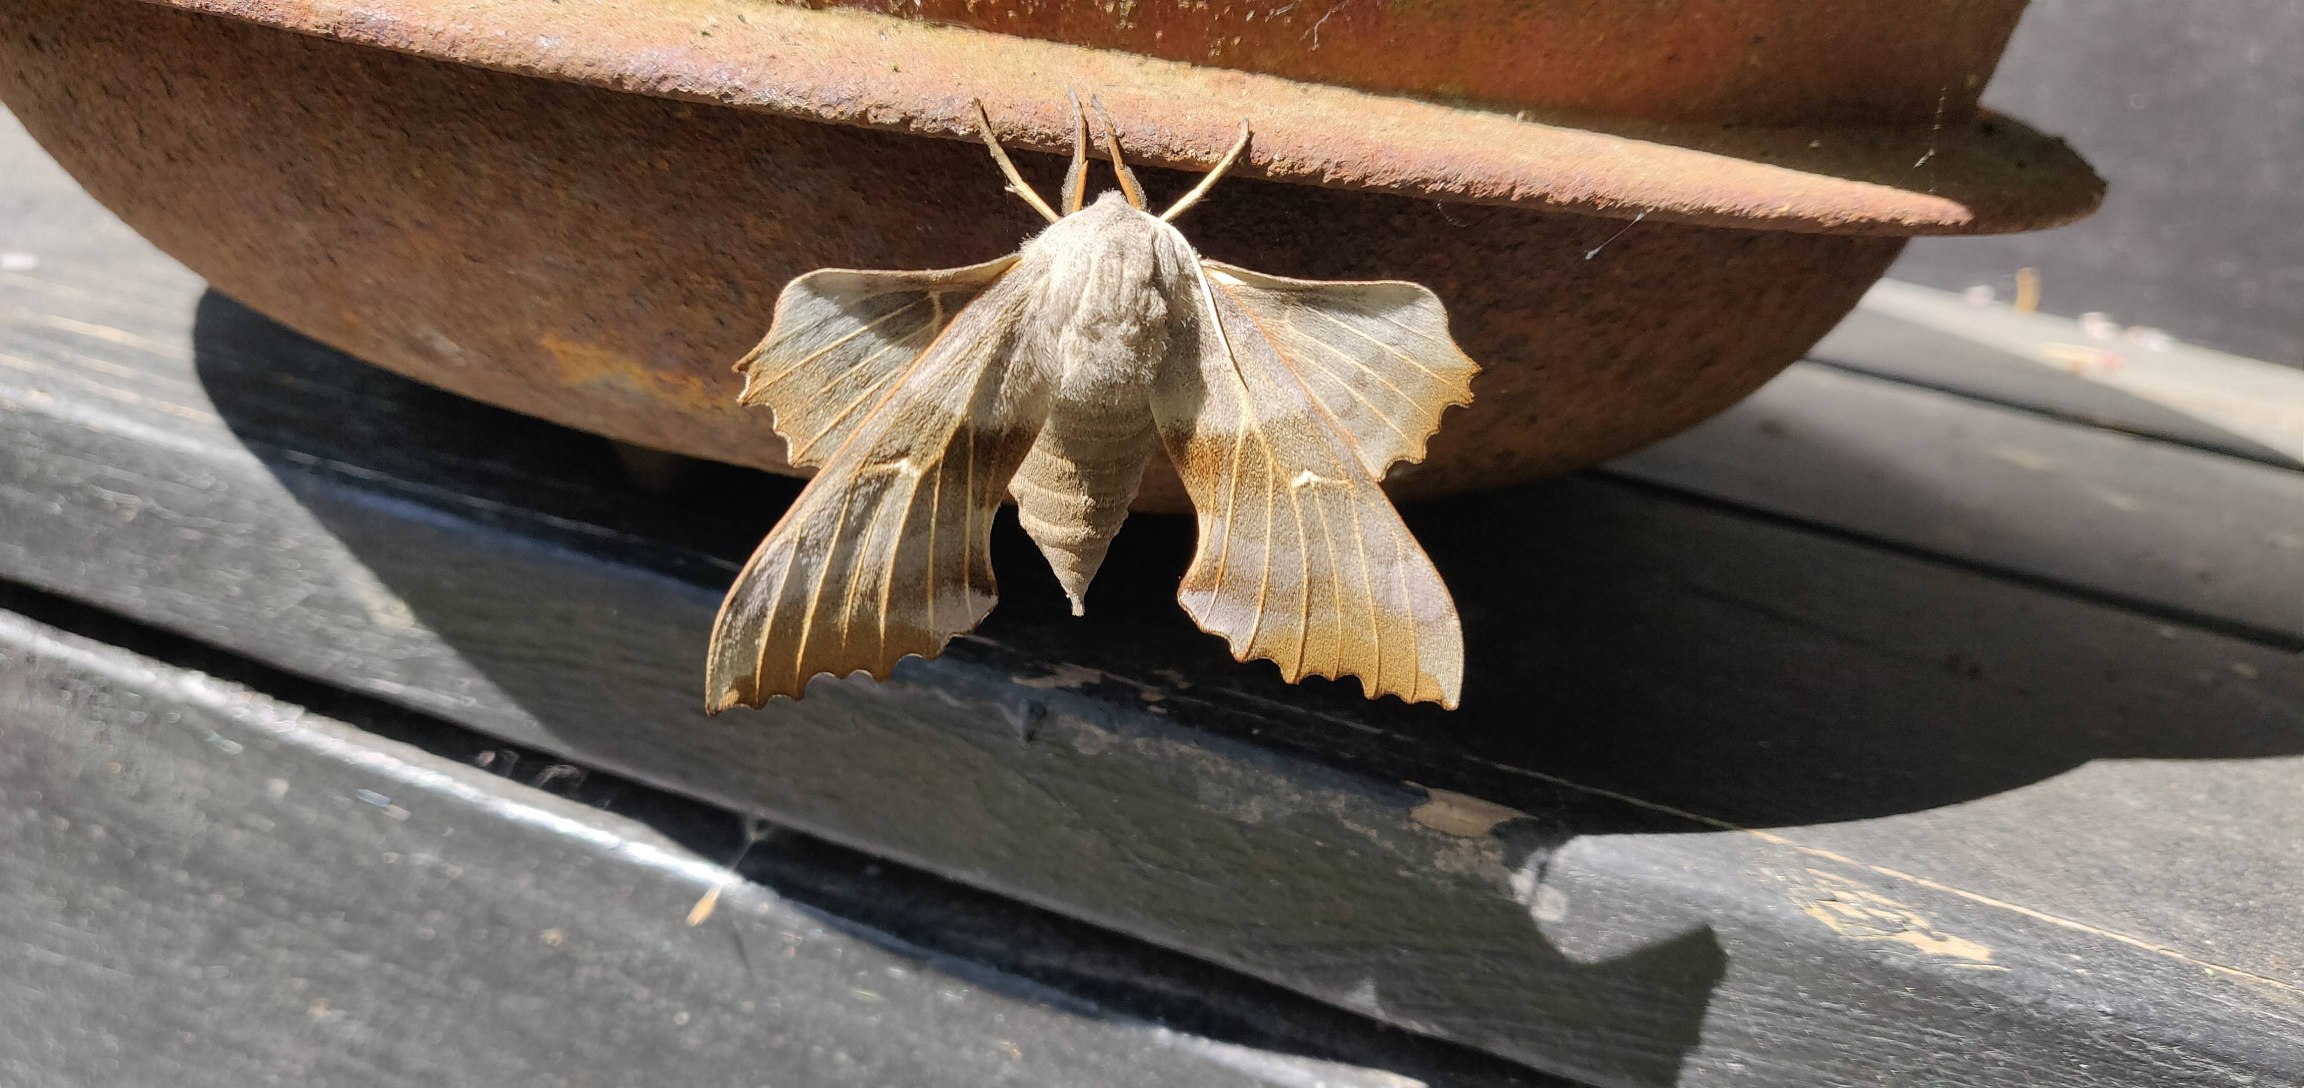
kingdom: Animalia
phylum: Arthropoda
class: Insecta
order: Lepidoptera
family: Sphingidae
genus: Laothoe
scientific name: Laothoe populi
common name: Poppelsværmer
